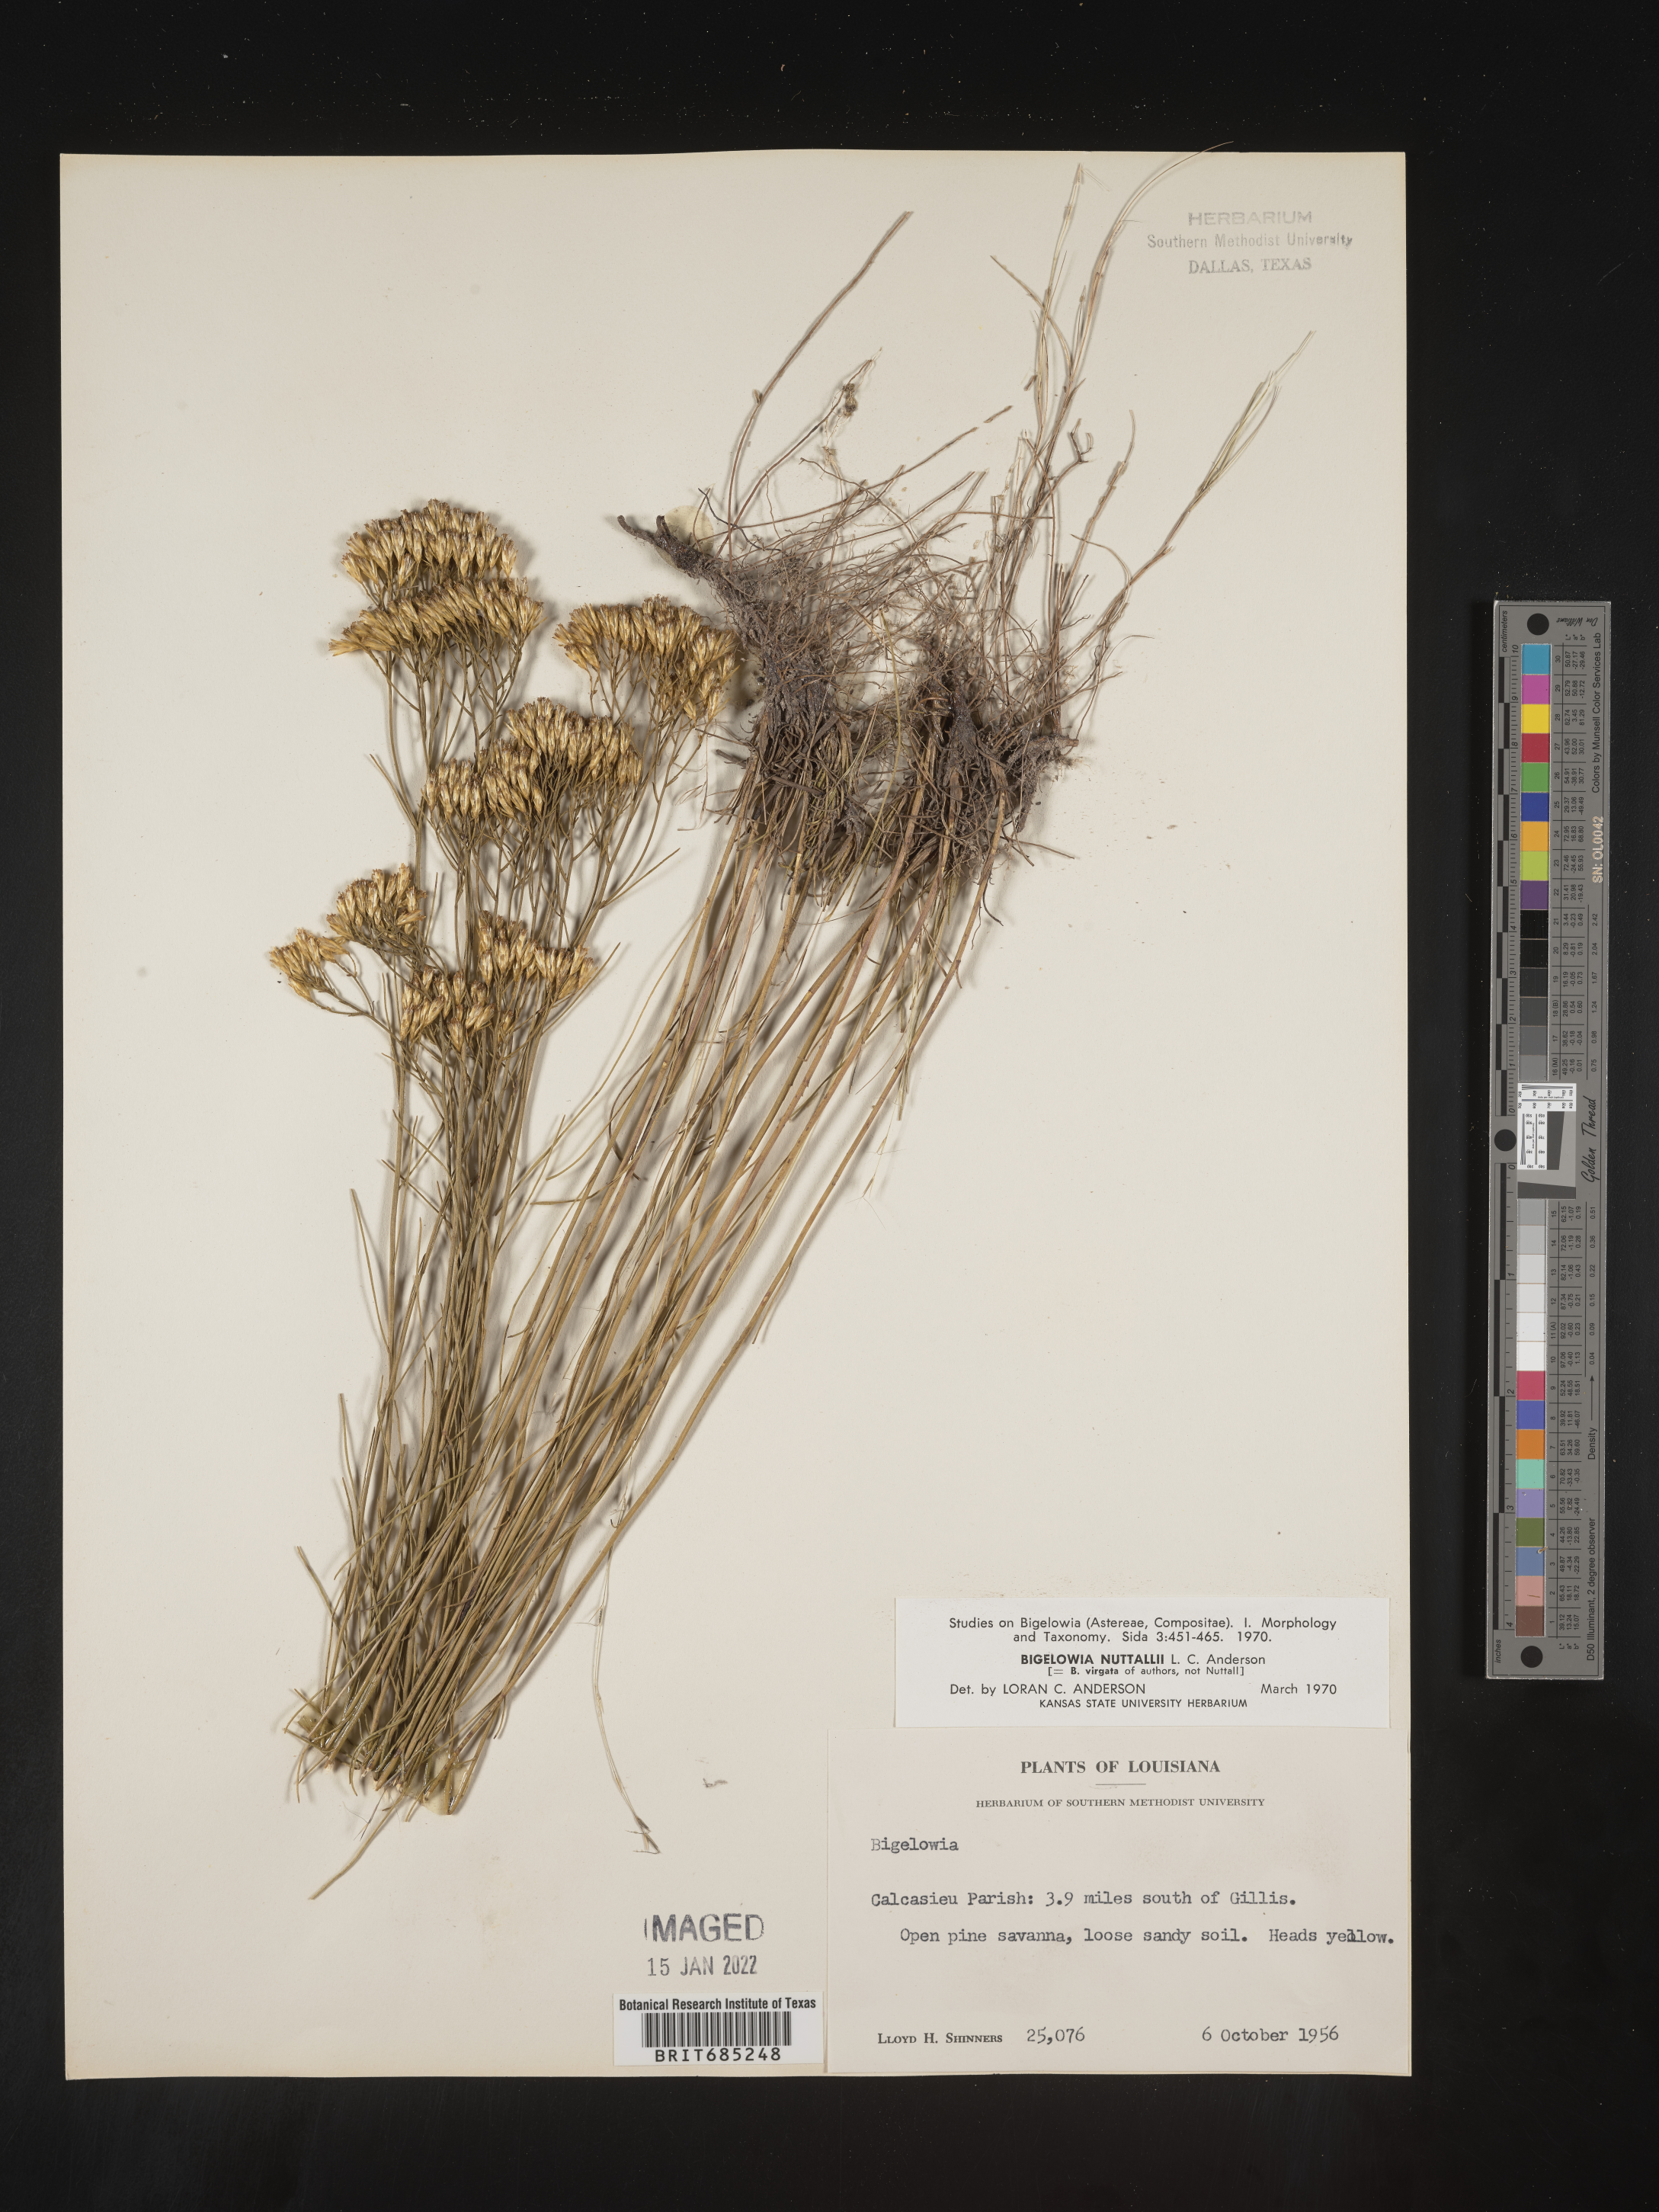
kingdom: Plantae
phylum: Tracheophyta
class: Magnoliopsida
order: Asterales
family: Asteraceae
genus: Bigelowia
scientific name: Bigelowia nuttallii
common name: Nuttall's rayless-goldenrod
